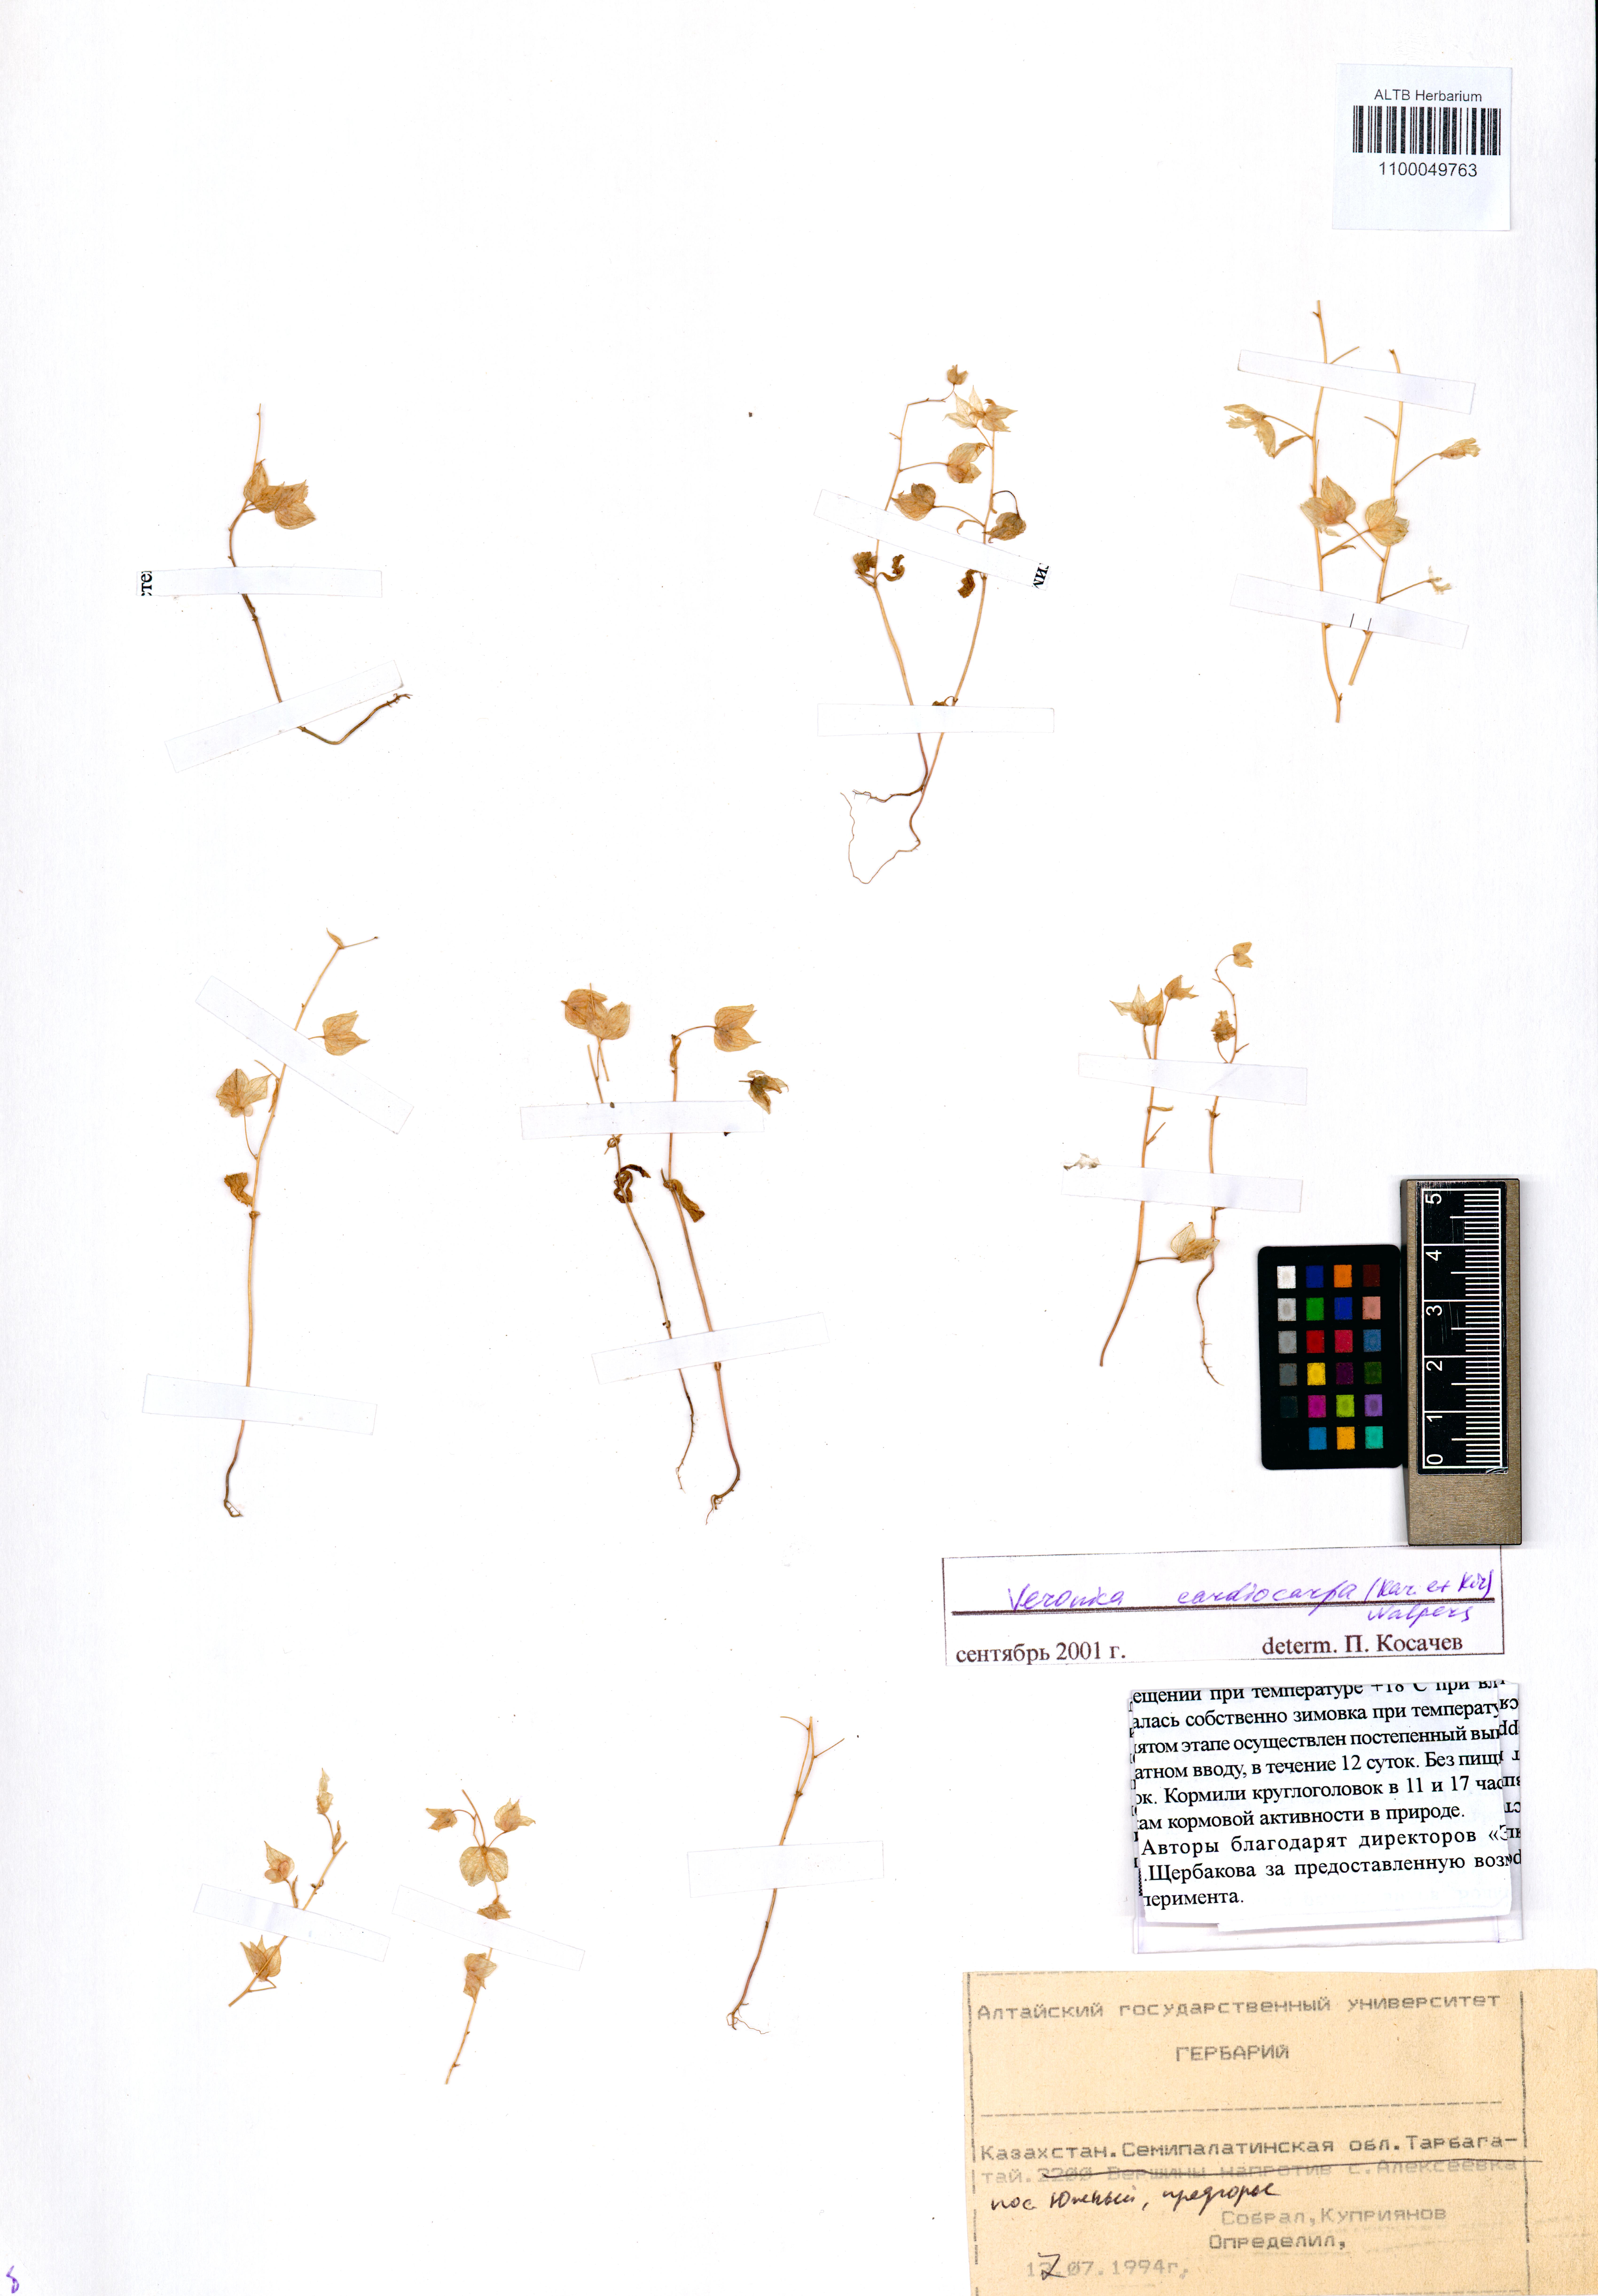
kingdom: Plantae
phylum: Tracheophyta
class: Magnoliopsida
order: Lamiales
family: Plantaginaceae
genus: Veronica
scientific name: Veronica cardiocarpa
